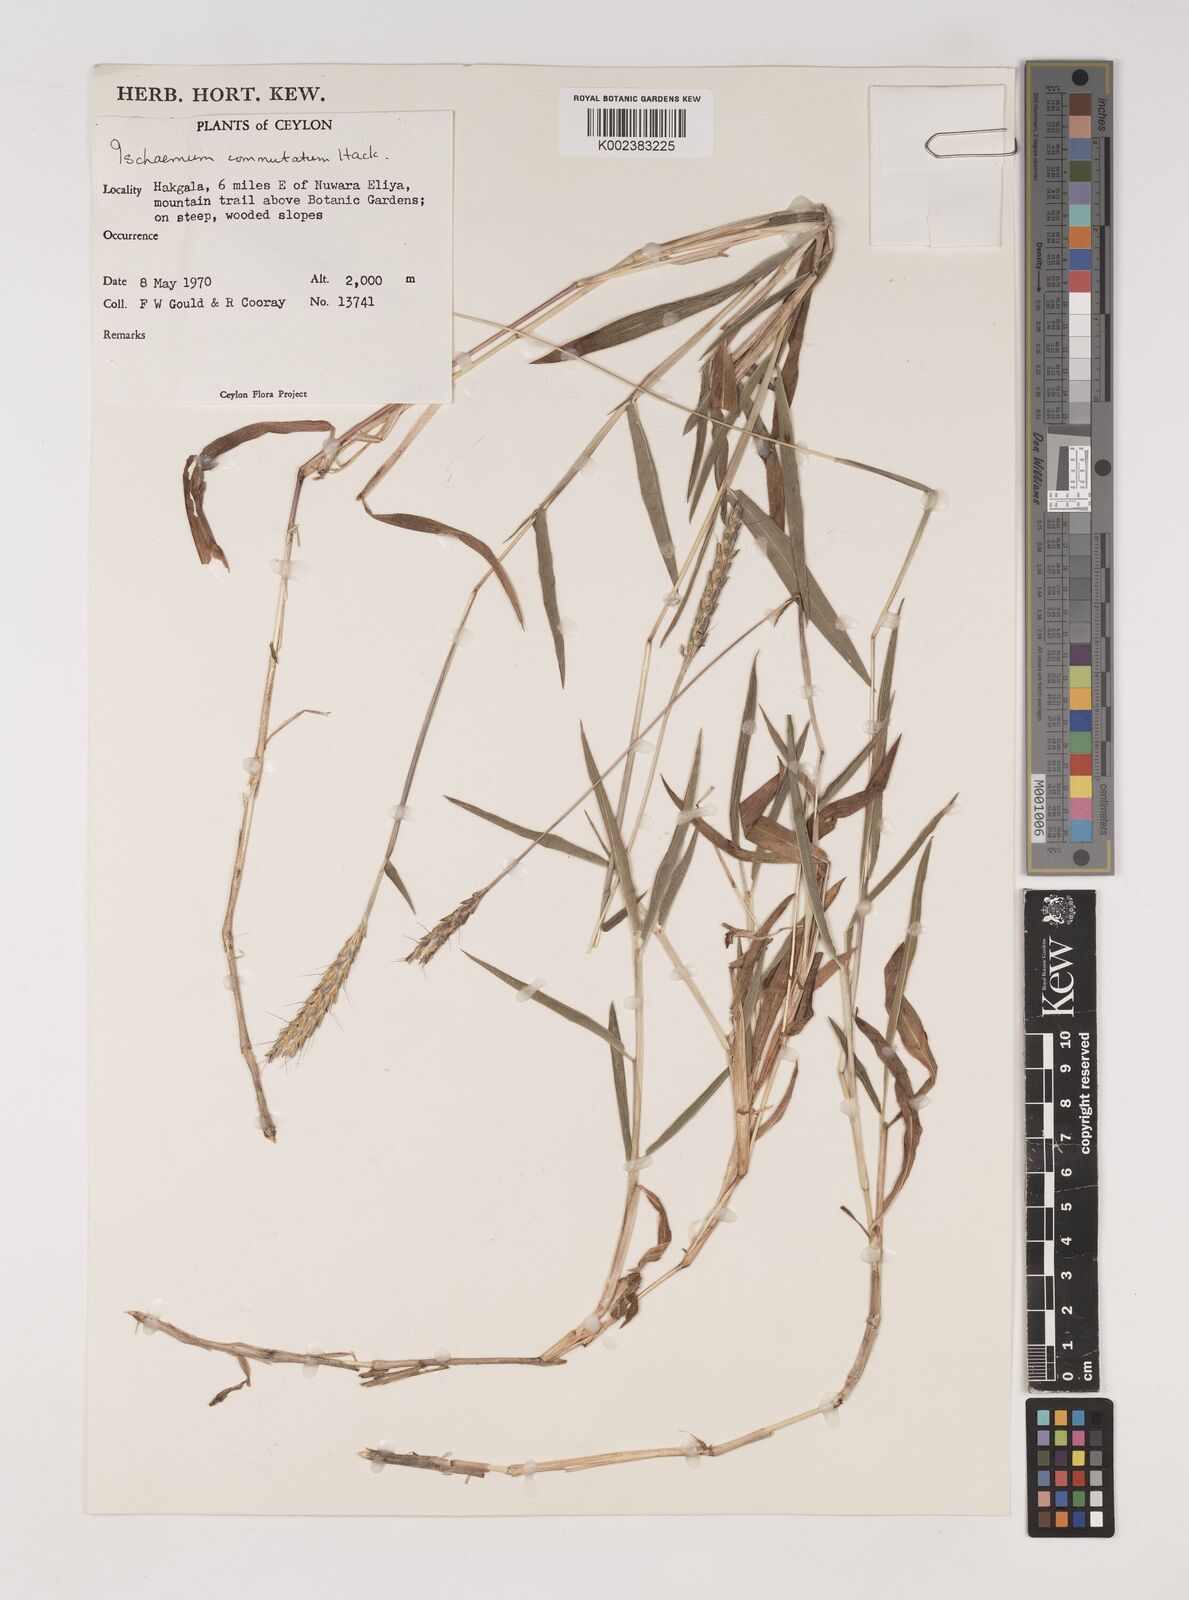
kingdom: Plantae
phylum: Tracheophyta
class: Liliopsida
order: Poales
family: Poaceae
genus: Ischaemum
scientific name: Ischaemum commutatum
